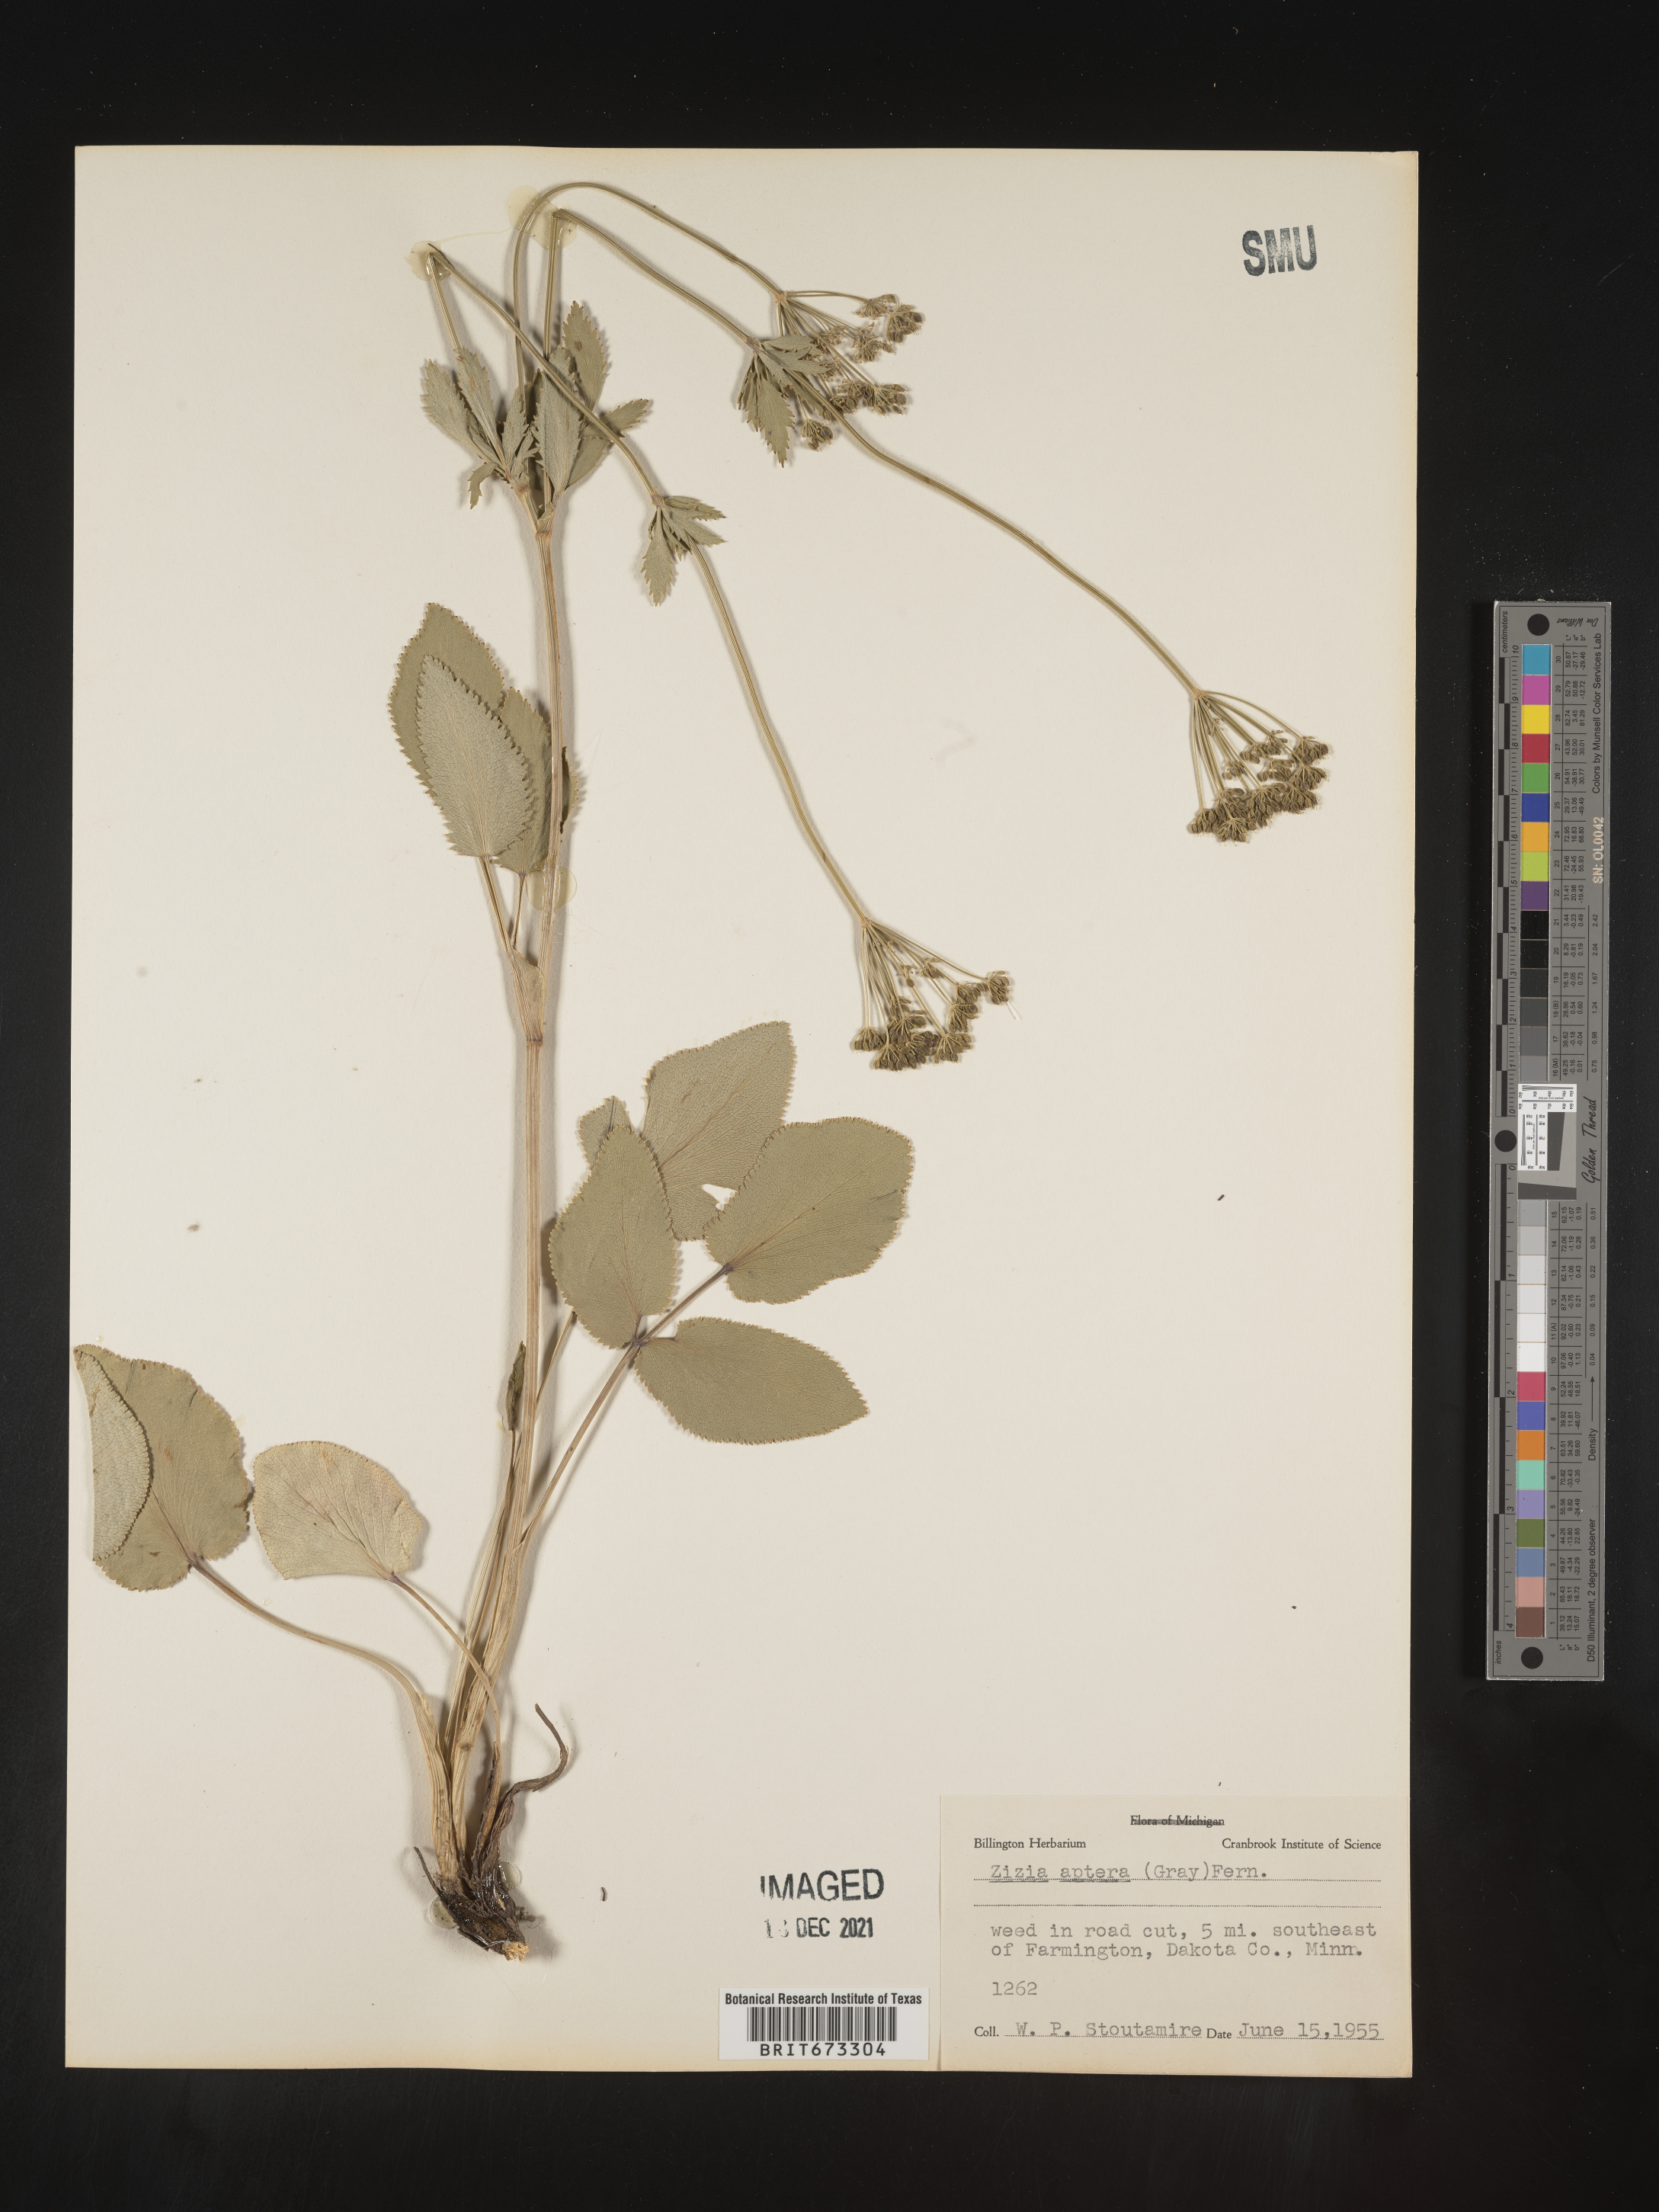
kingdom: Plantae
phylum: Tracheophyta
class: Magnoliopsida
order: Apiales
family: Apiaceae
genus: Zizia
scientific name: Zizia aptera
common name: Heart-leaved alexanders
